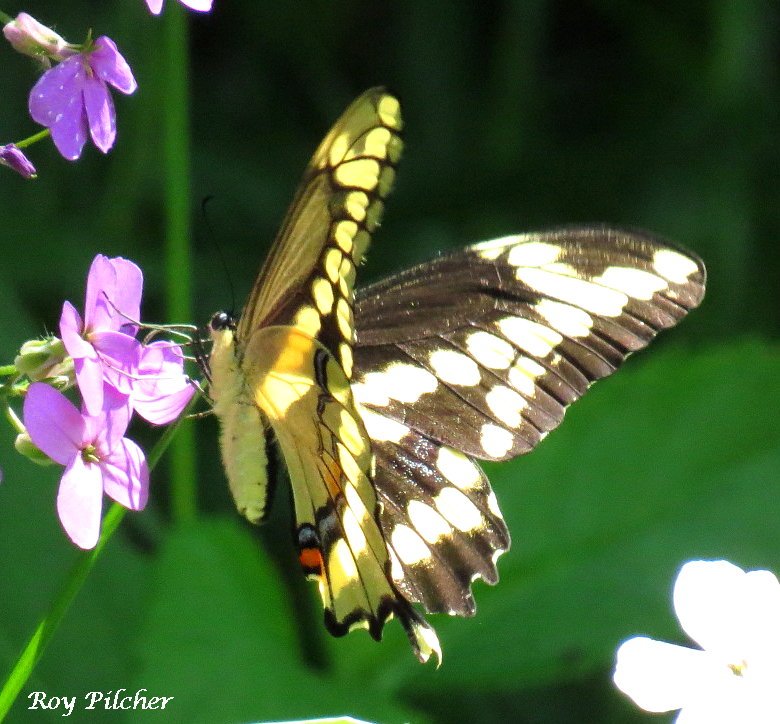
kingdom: Animalia
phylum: Arthropoda
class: Insecta
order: Lepidoptera
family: Papilionidae
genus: Papilio
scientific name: Papilio cresphontes
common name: Eastern Giant Swallowtail
